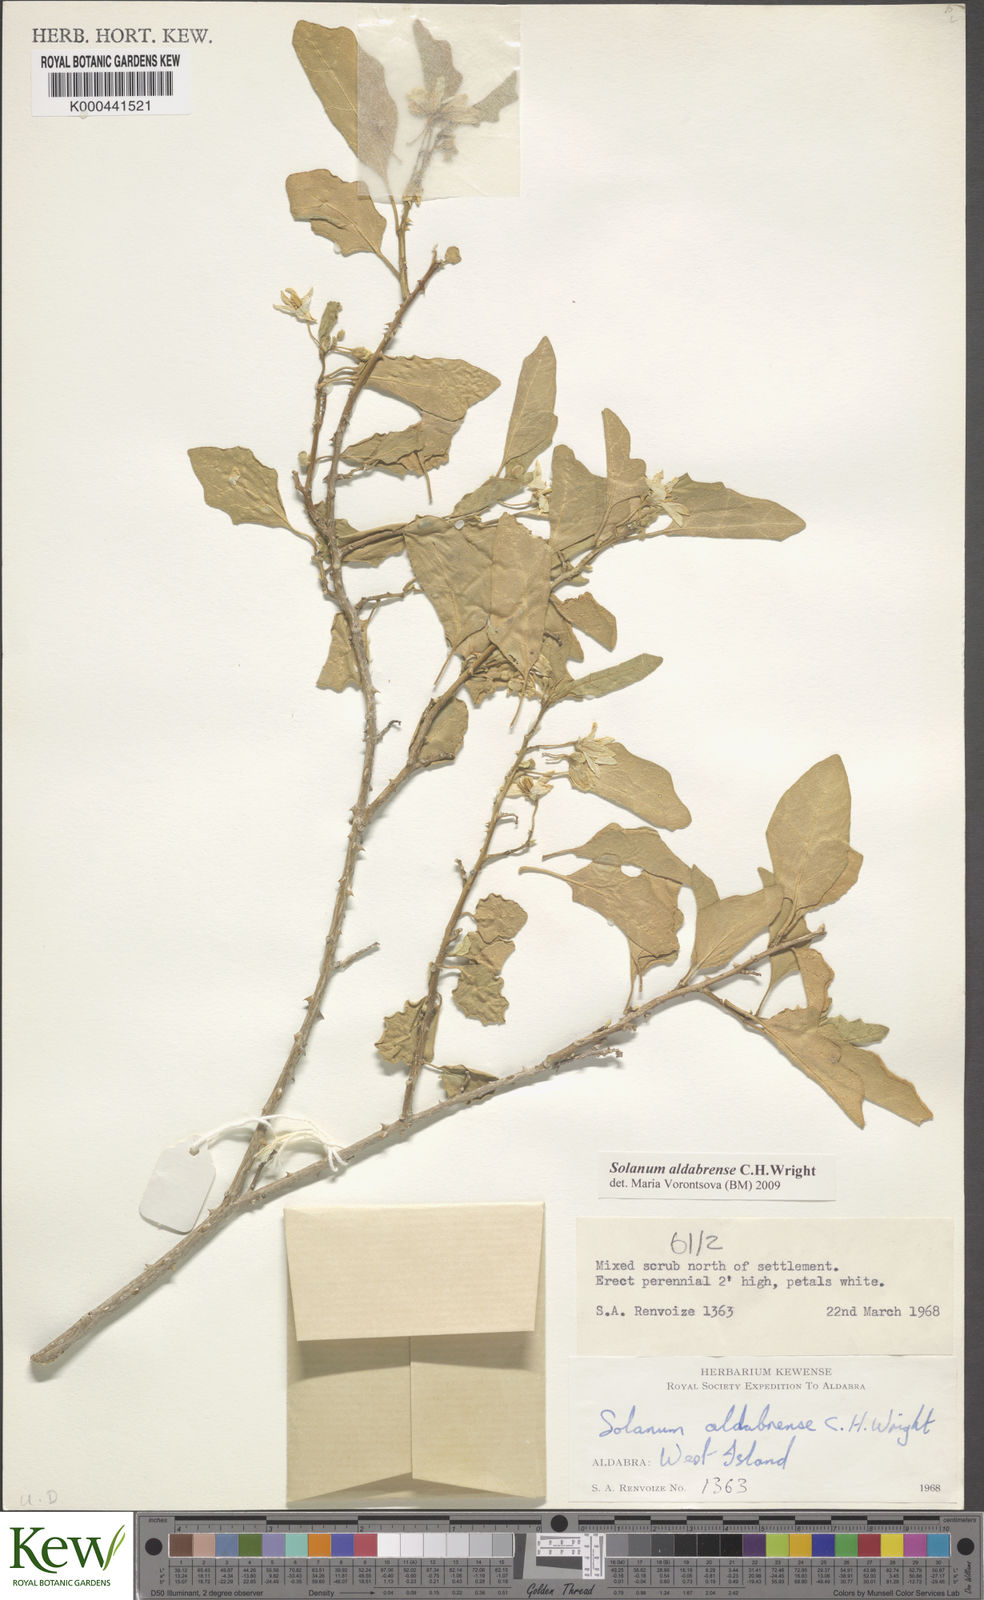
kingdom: Plantae
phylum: Tracheophyta
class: Magnoliopsida
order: Solanales
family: Solanaceae
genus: Solanum
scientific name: Solanum aldabrense
